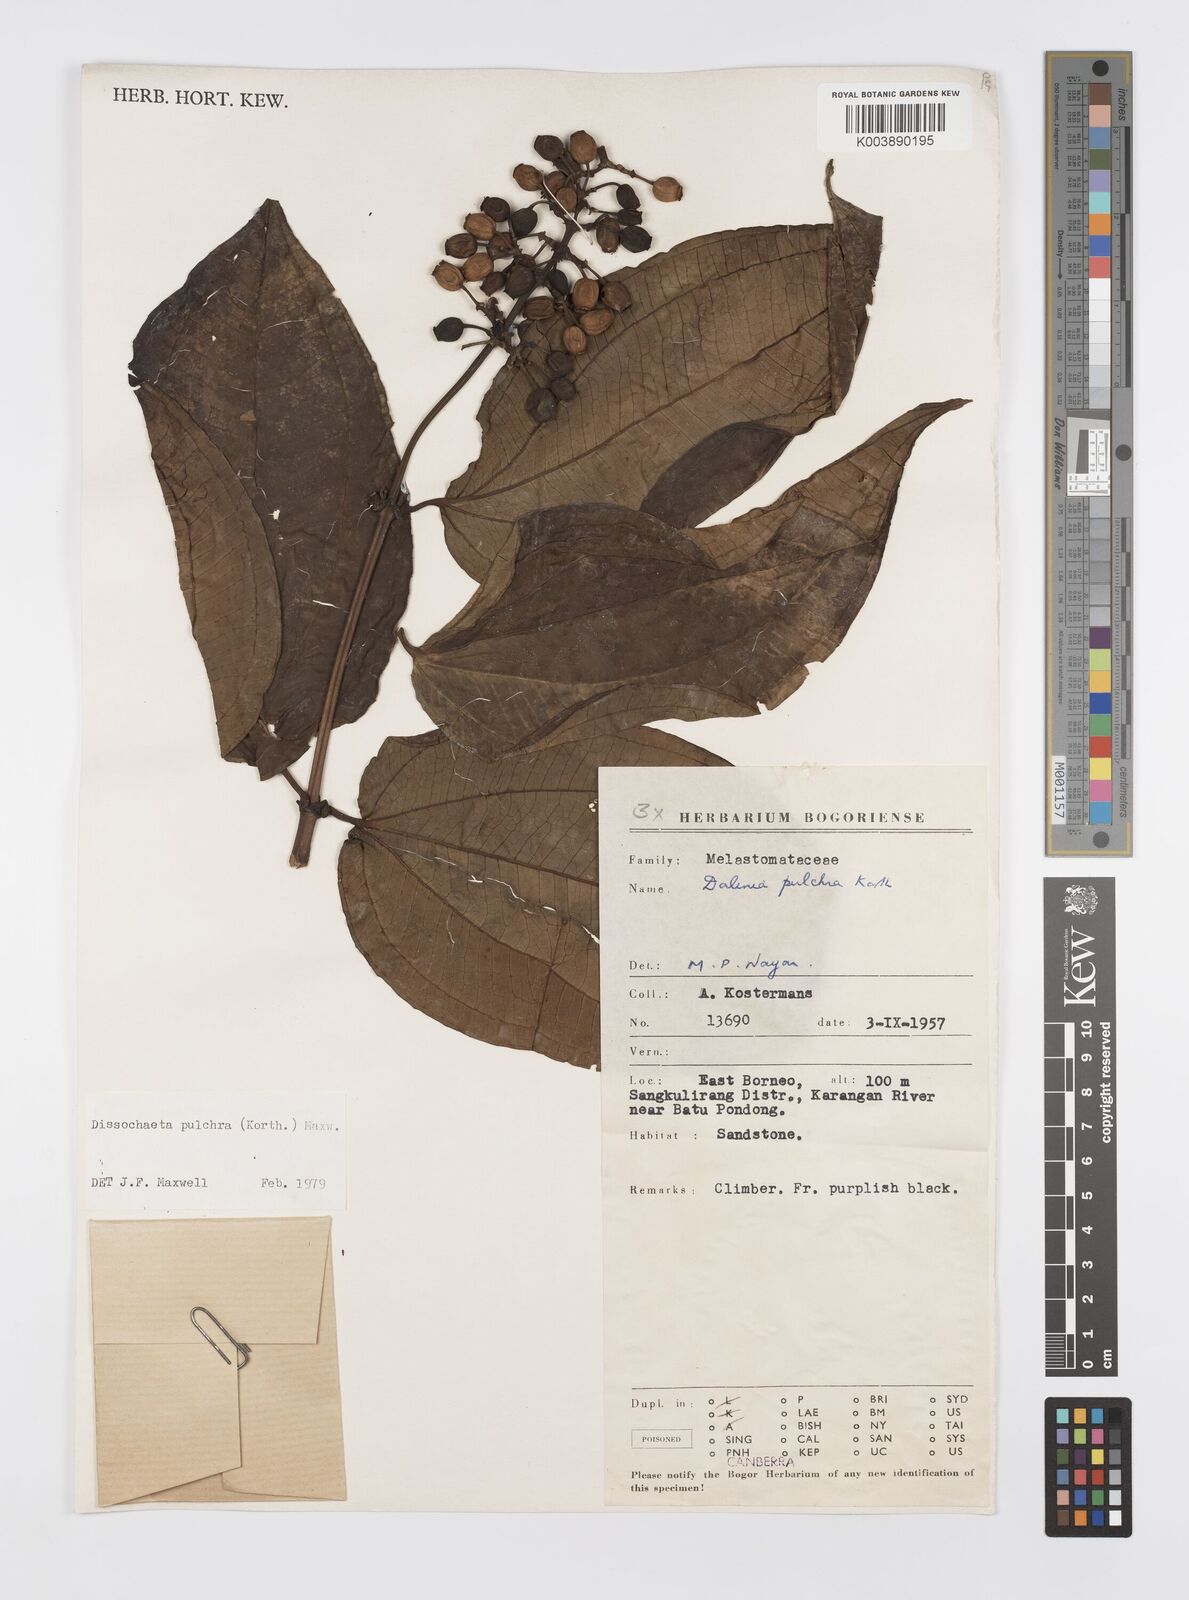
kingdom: Plantae
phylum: Tracheophyta
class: Magnoliopsida
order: Myrtales
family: Melastomataceae
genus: Dalenia
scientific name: Dalenia pulchra
